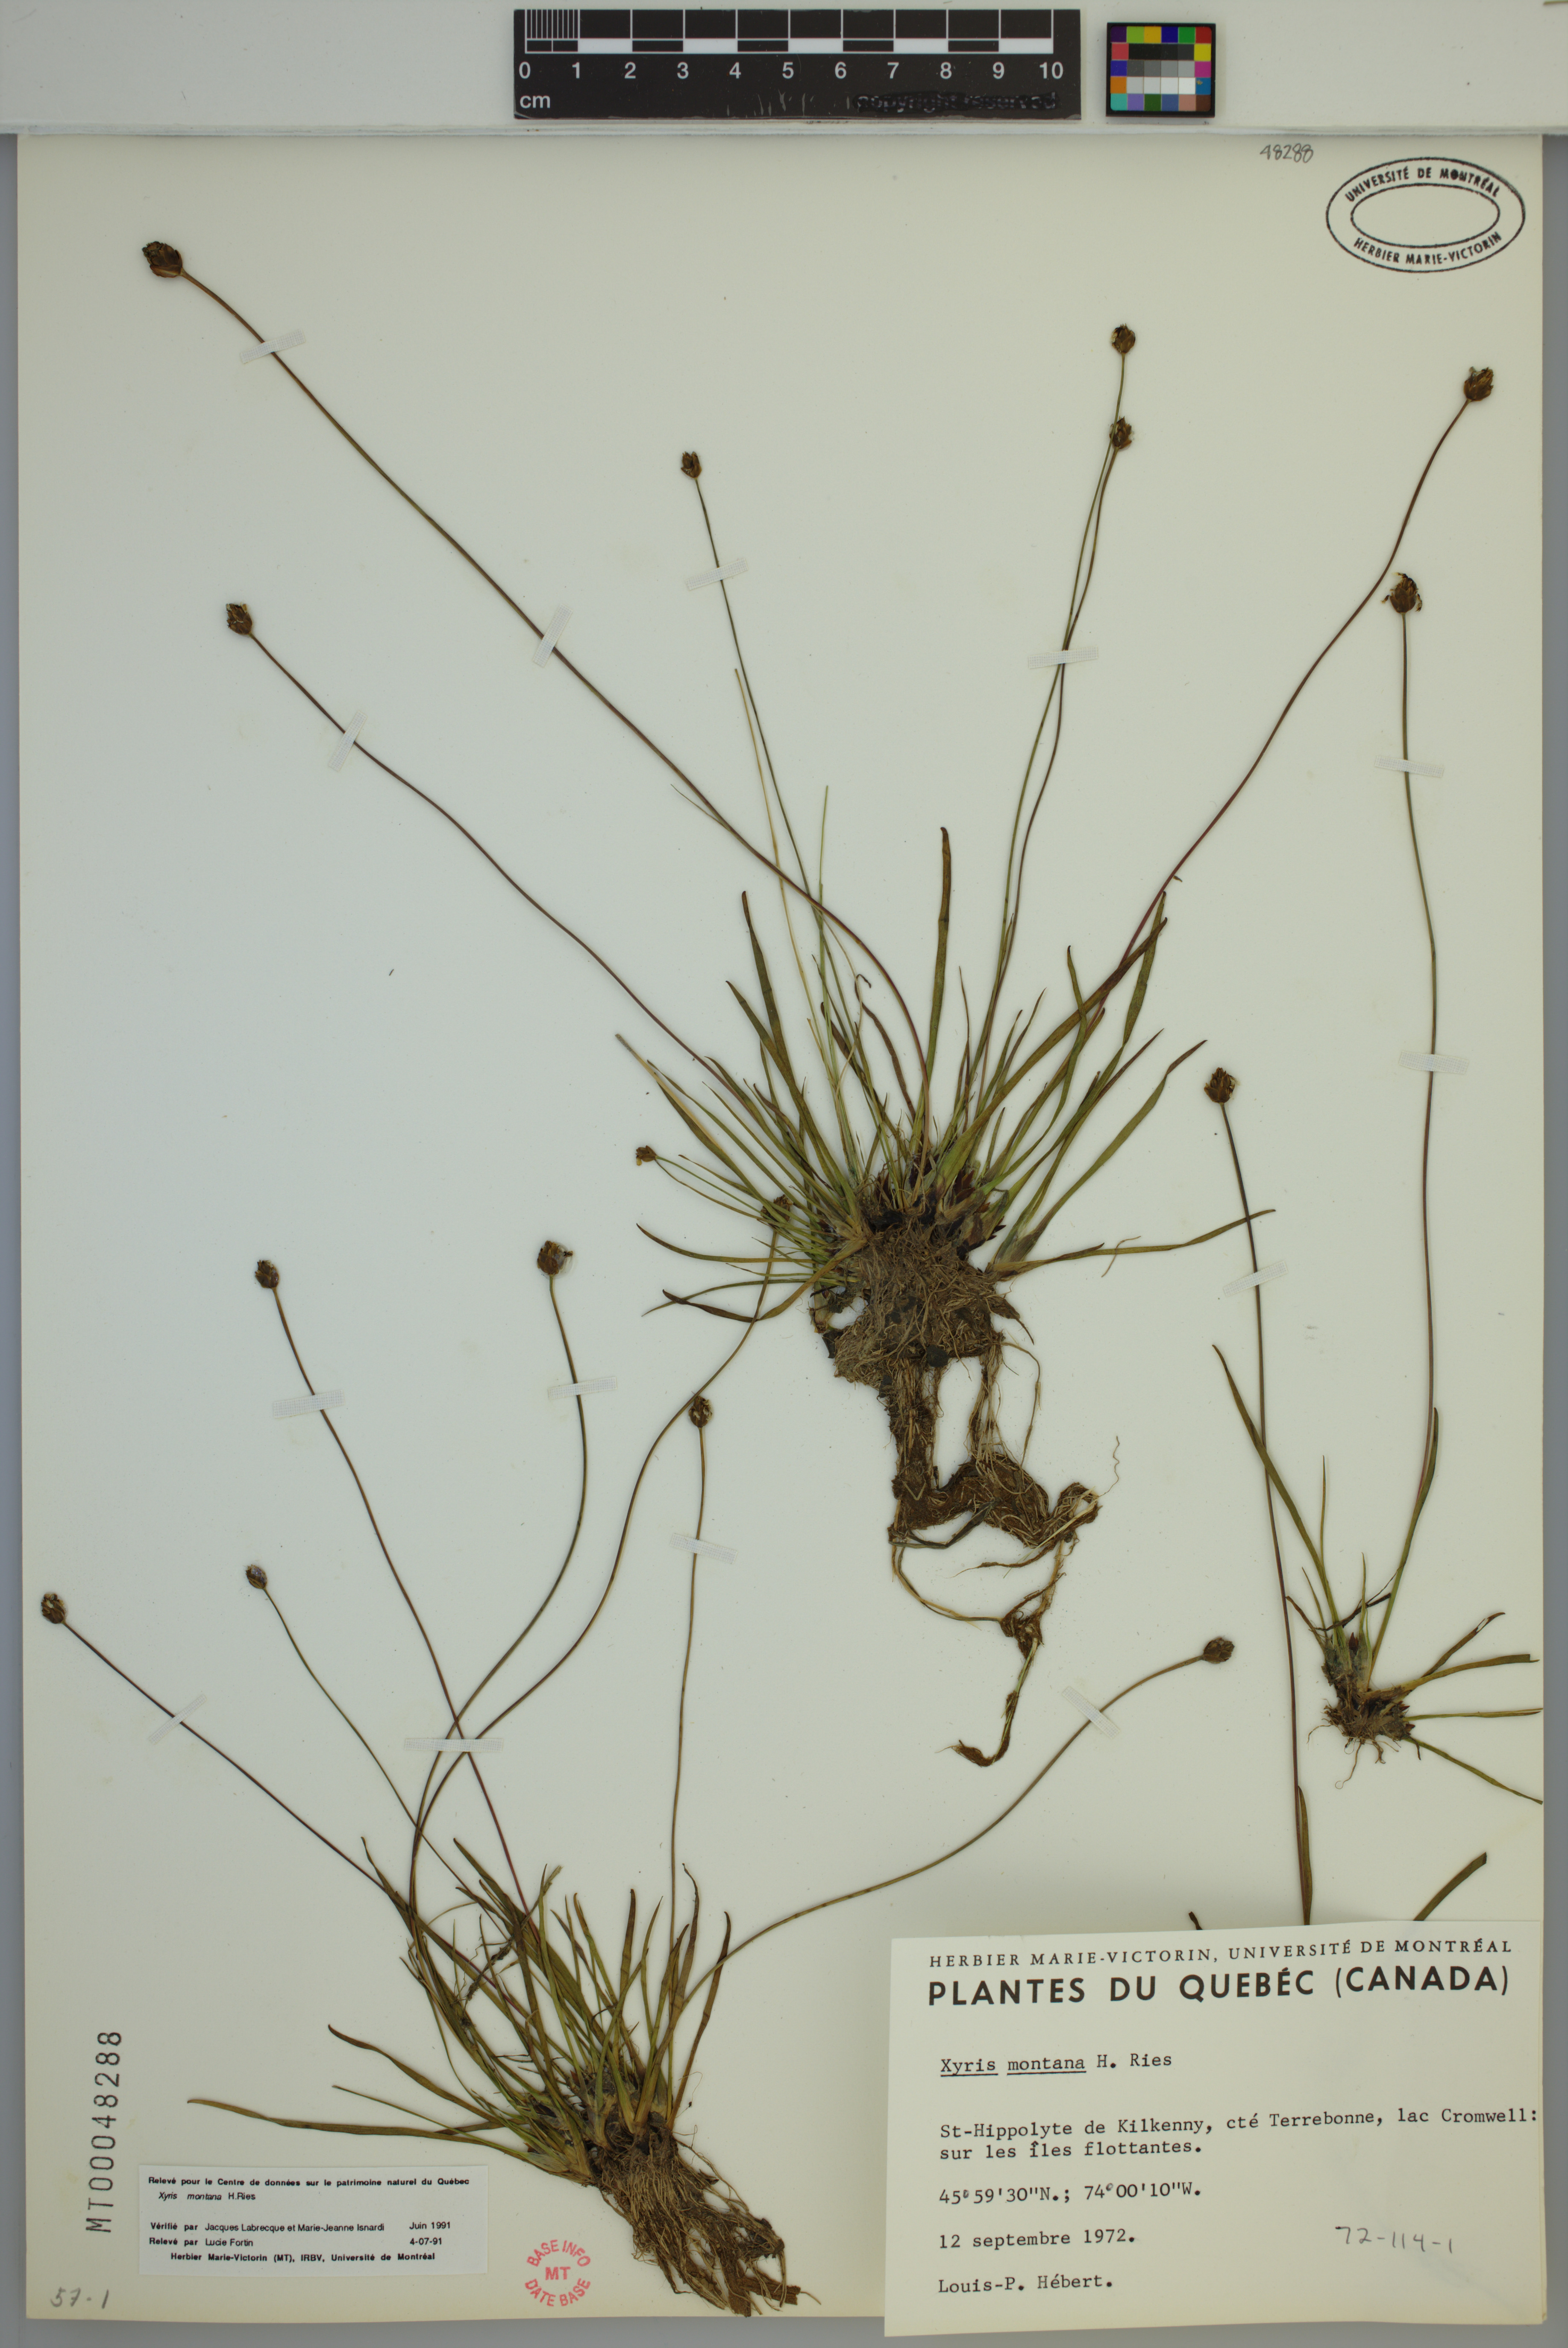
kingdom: Plantae
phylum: Tracheophyta
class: Liliopsida
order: Poales
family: Xyridaceae
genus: Xyris
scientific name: Xyris montana
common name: Northern yellow-eyed-grass
